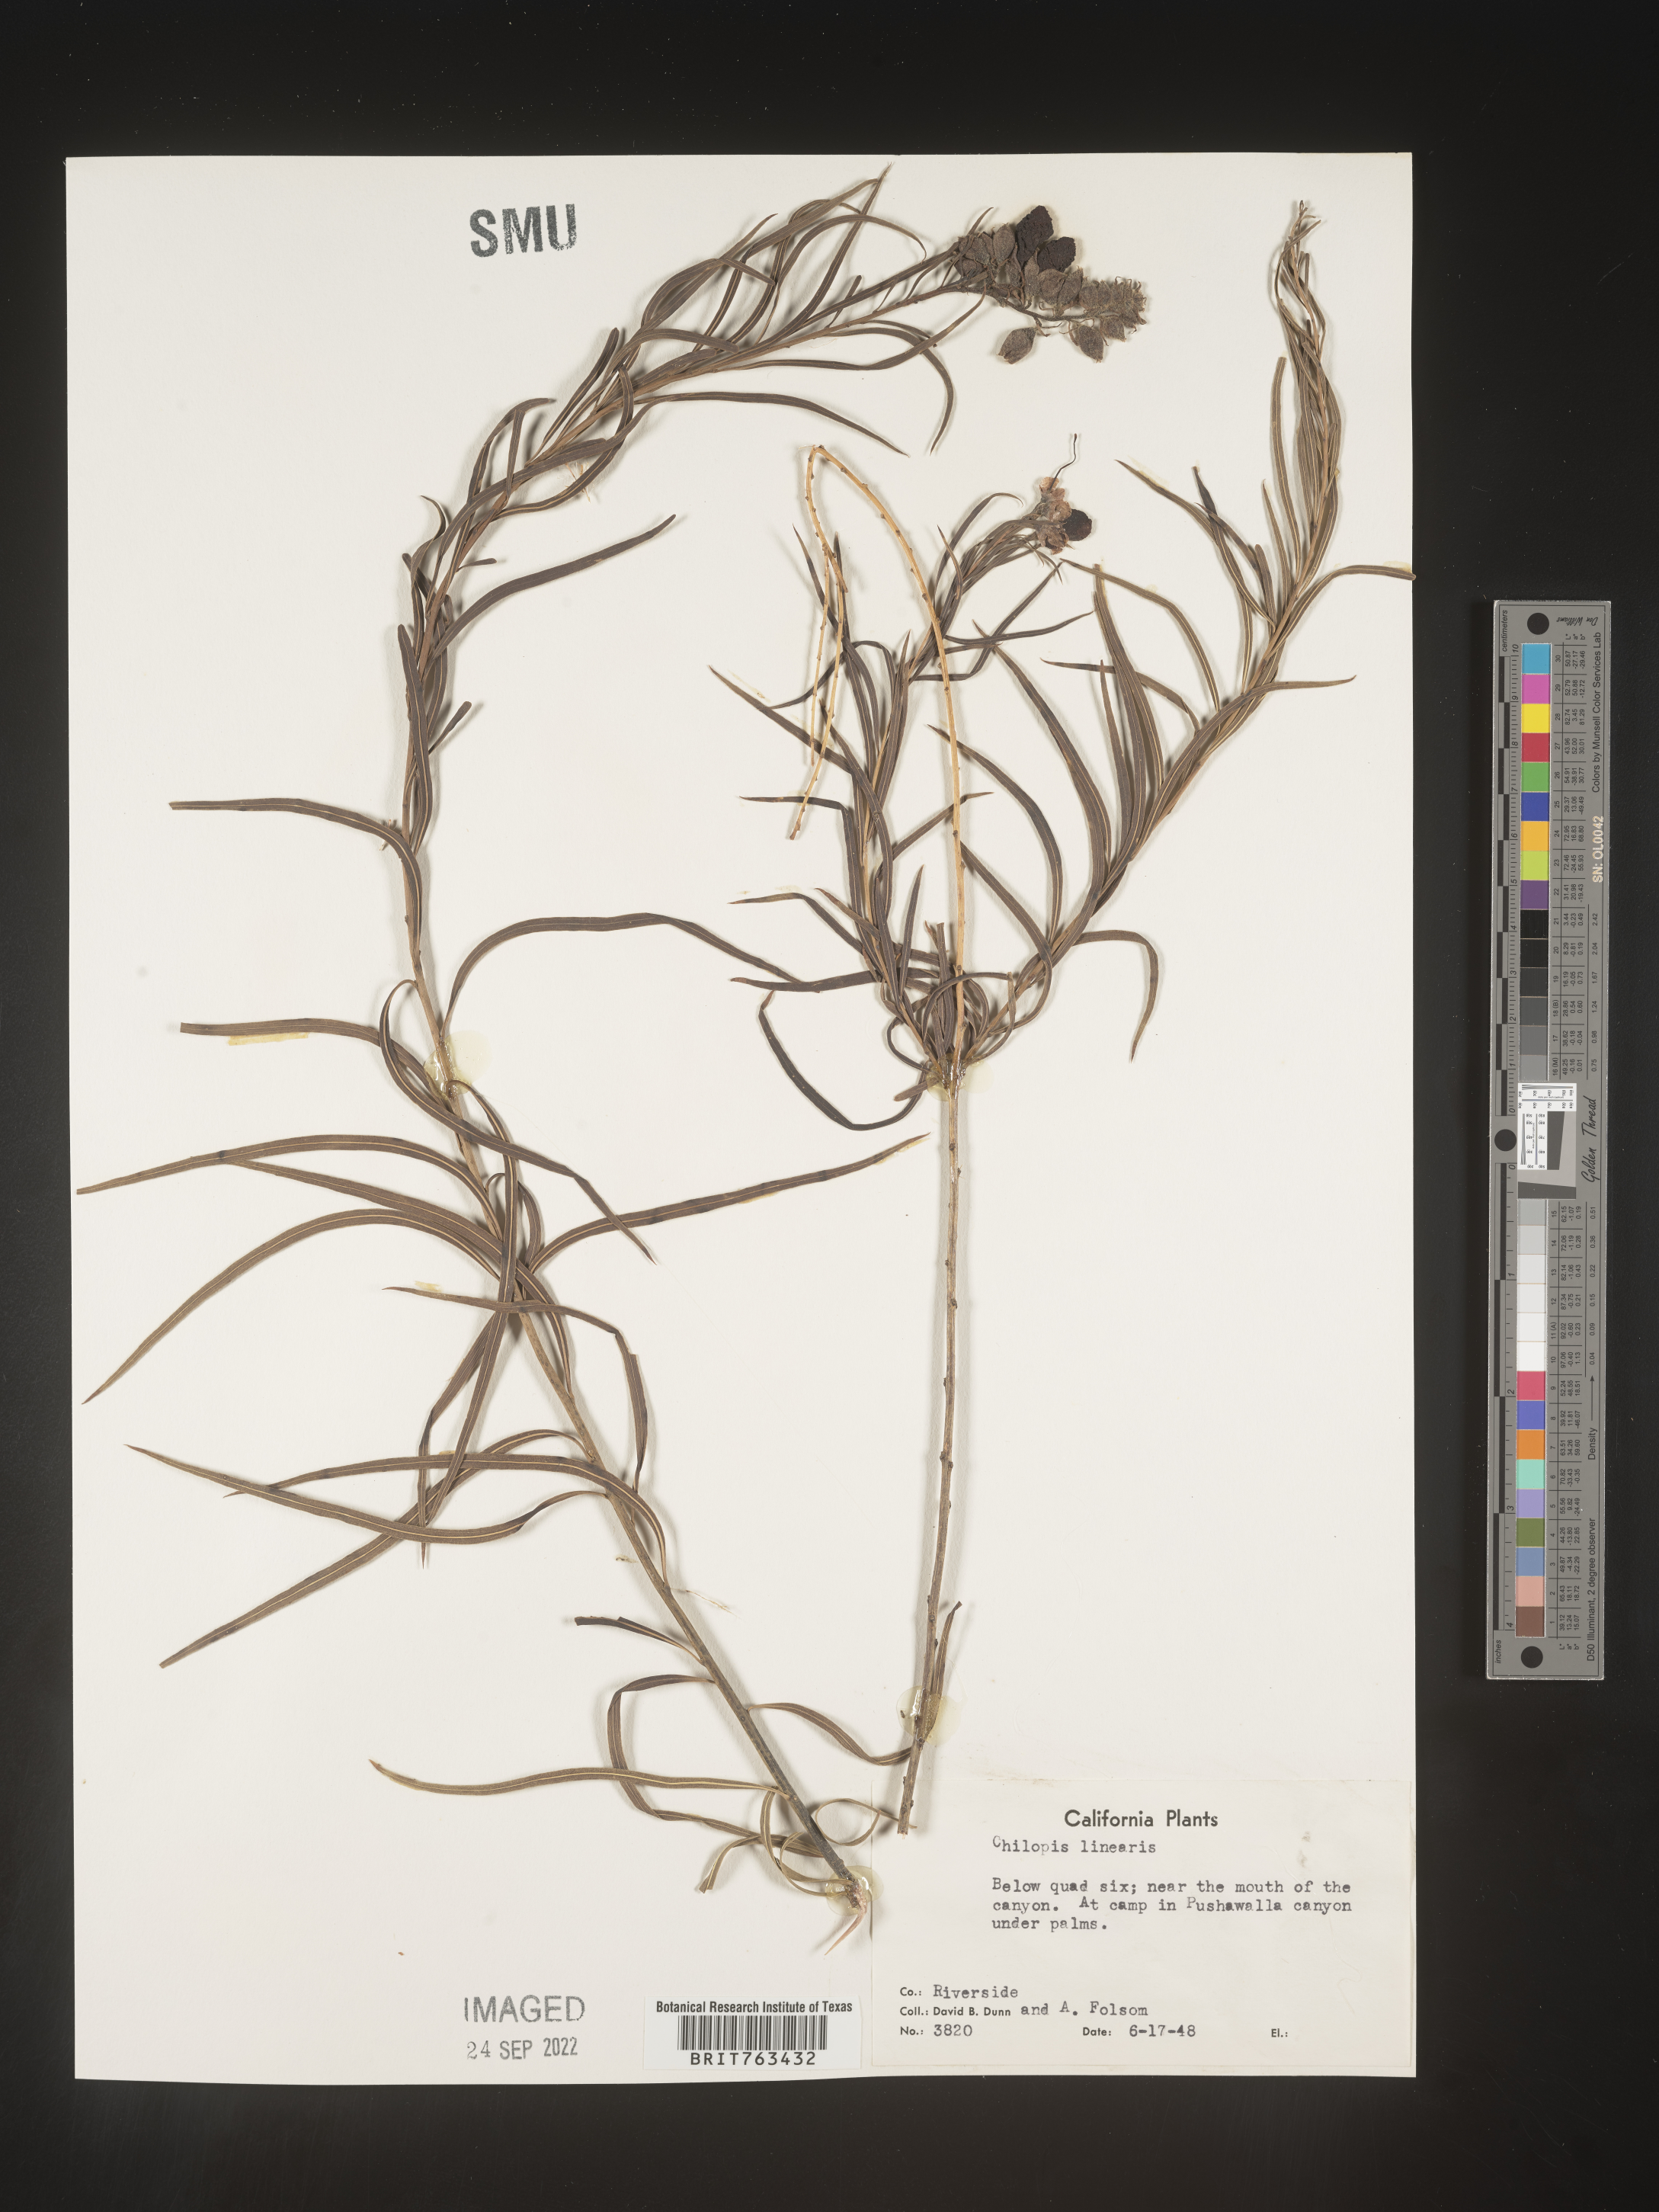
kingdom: Plantae
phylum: Tracheophyta
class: Magnoliopsida
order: Lamiales
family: Bignoniaceae
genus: Chilopsis
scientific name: Chilopsis linearis
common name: Desert-willow
